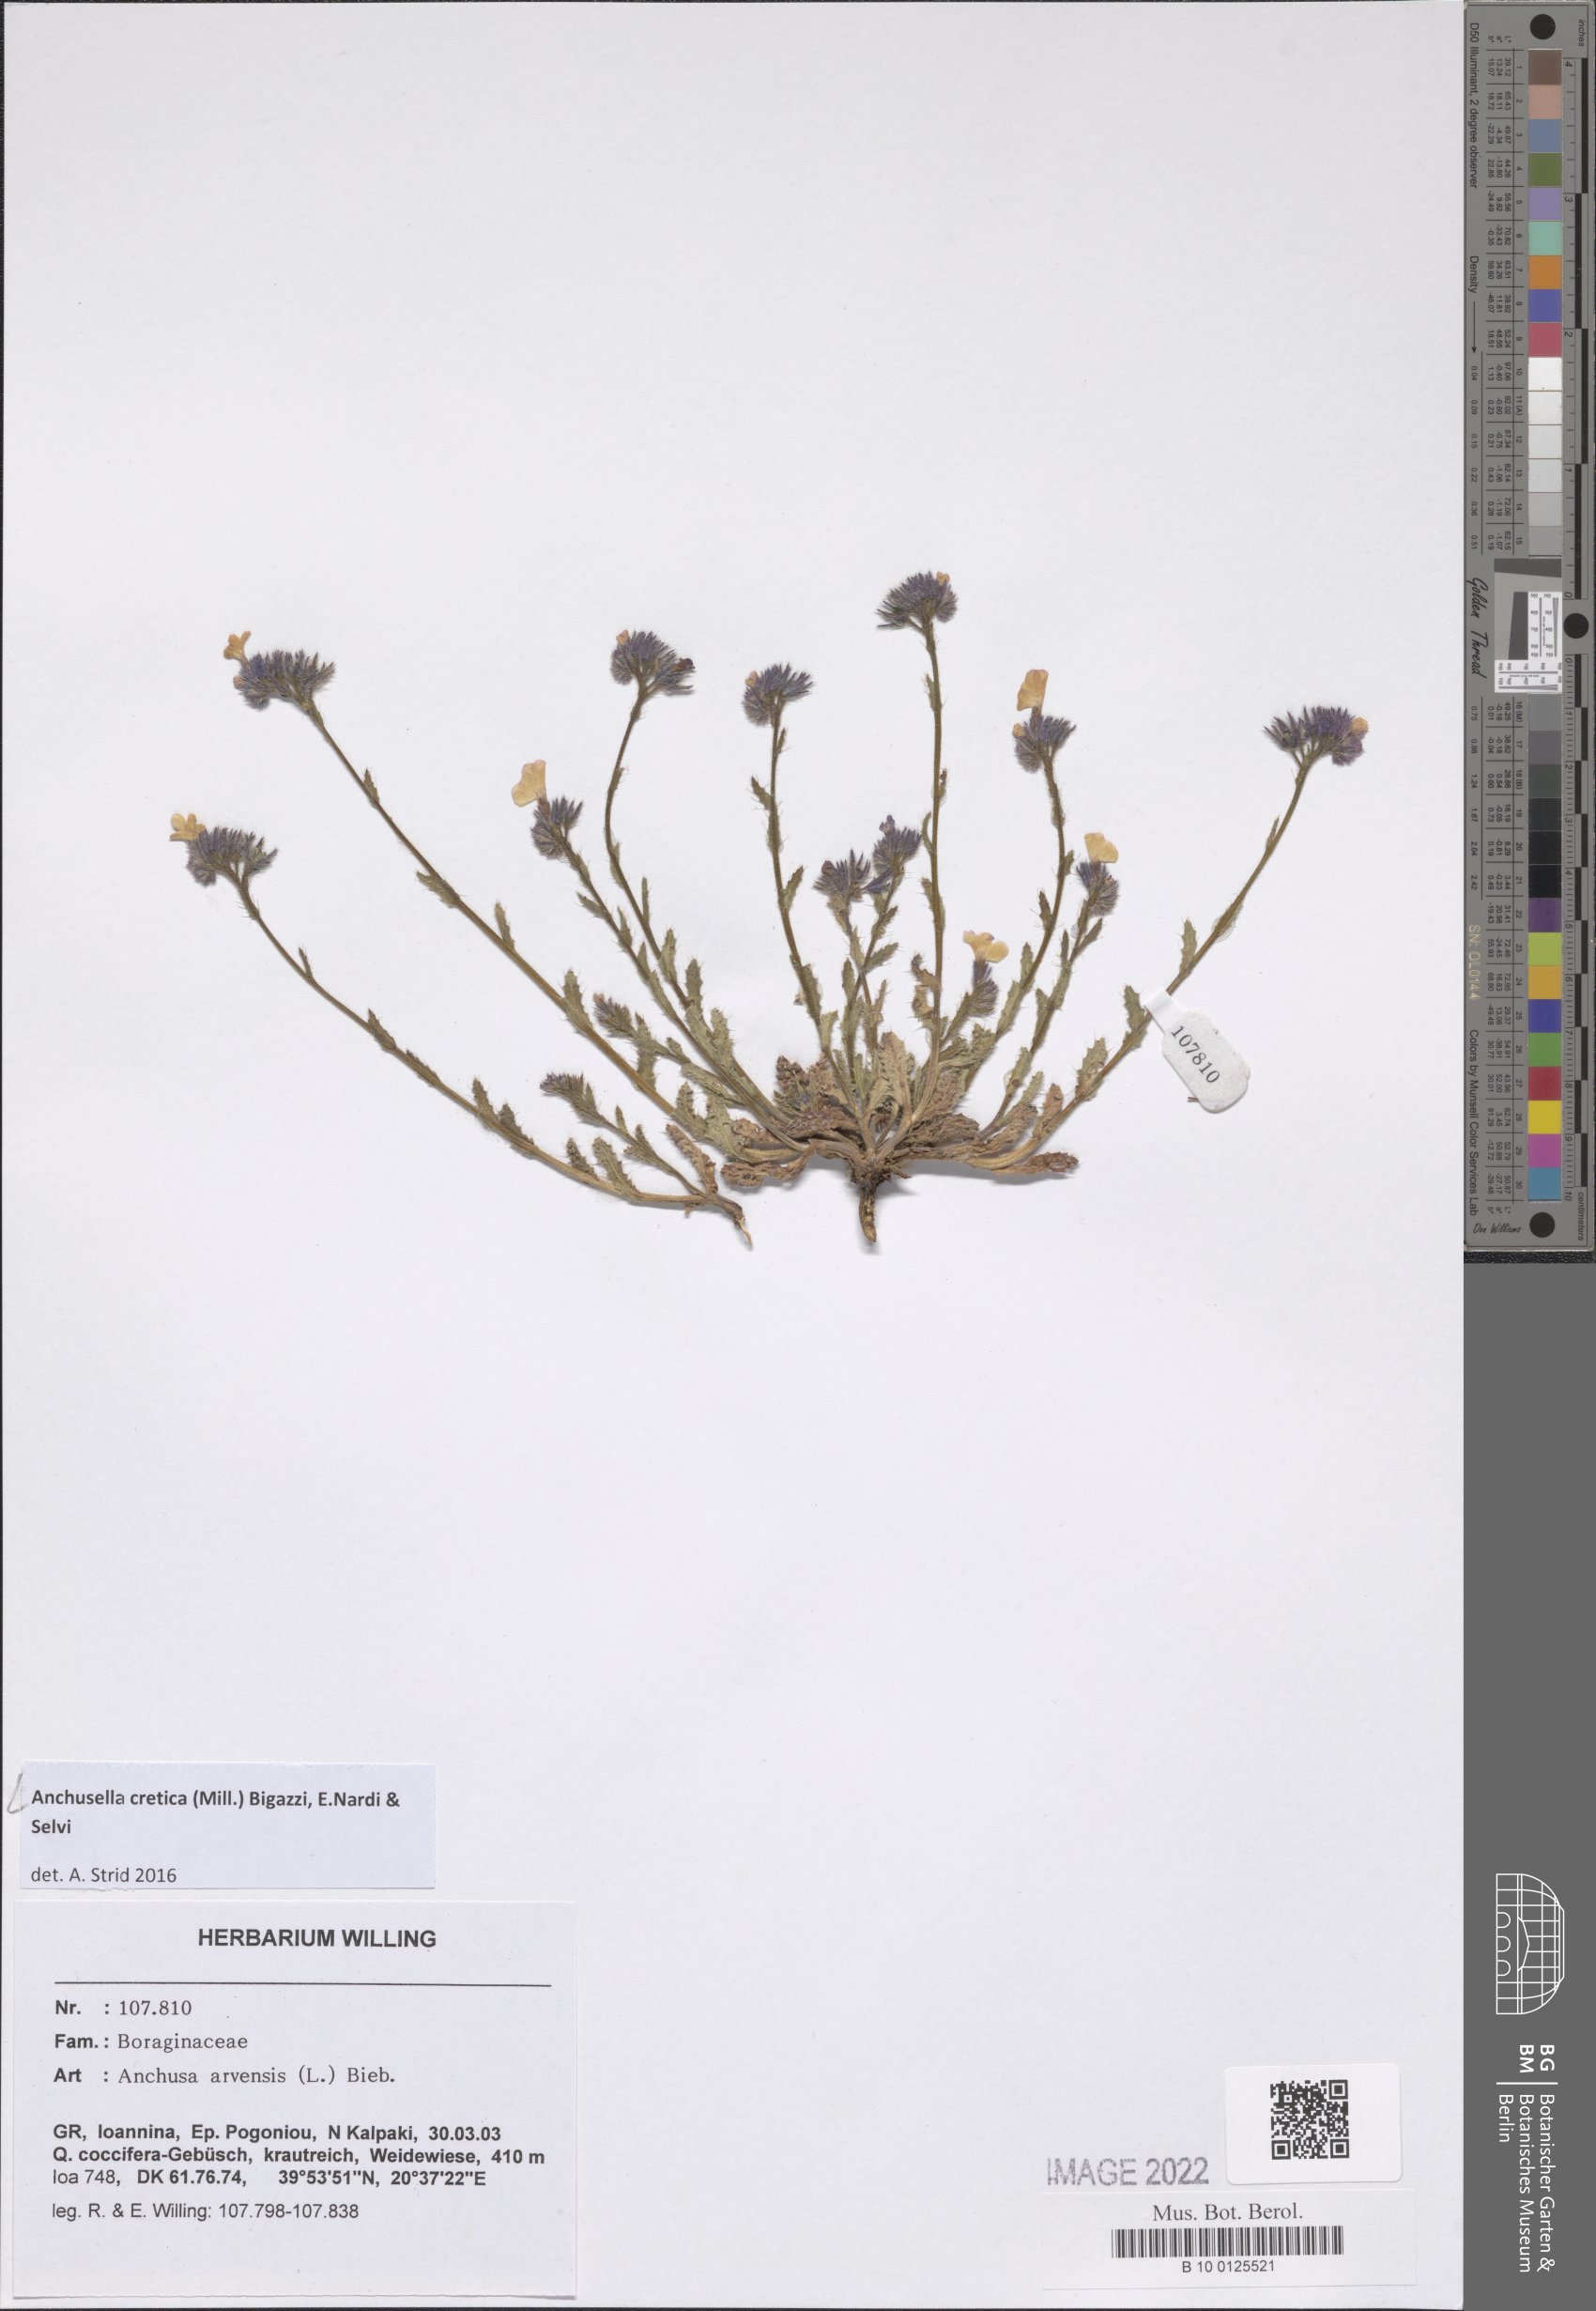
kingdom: Plantae
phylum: Tracheophyta
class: Magnoliopsida
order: Boraginales
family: Boraginaceae
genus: Anchusella
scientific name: Anchusella cretica
